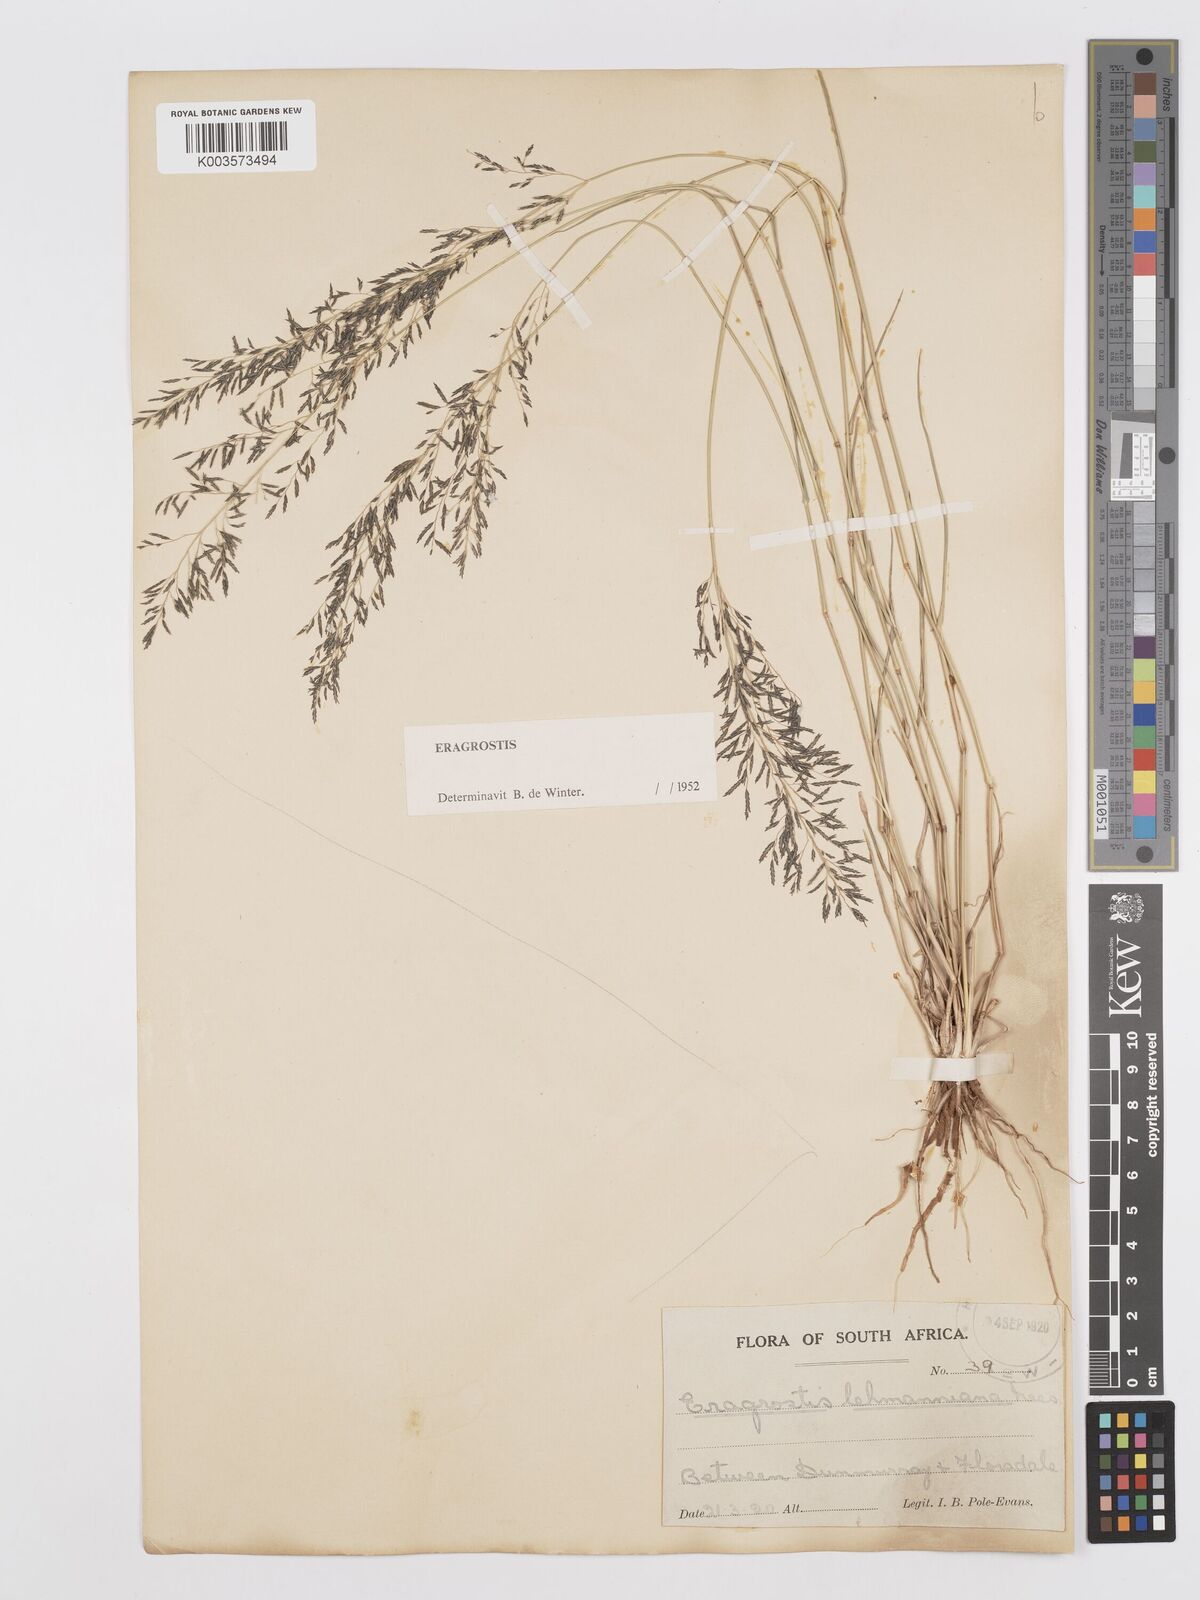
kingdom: Plantae
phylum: Tracheophyta
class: Liliopsida
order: Poales
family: Poaceae
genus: Eragrostis
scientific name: Eragrostis lehmanniana
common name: Lehmann lovegrass
